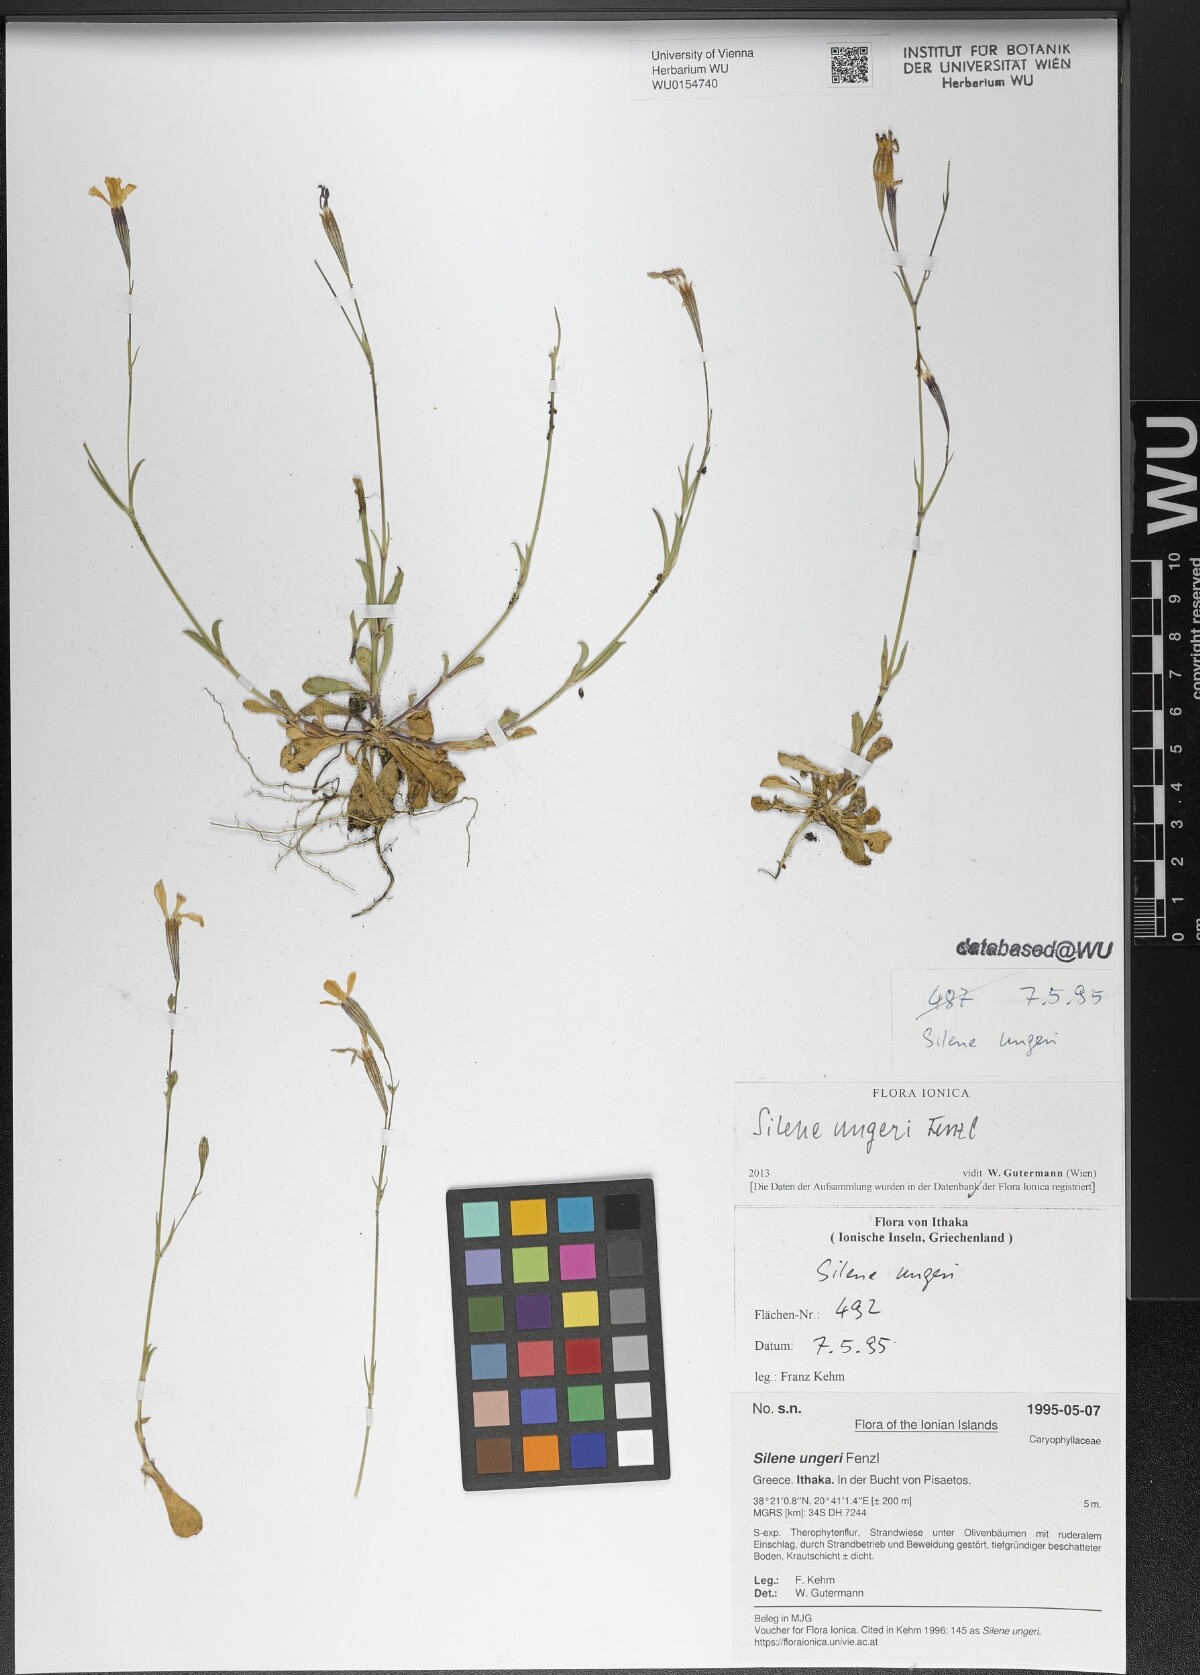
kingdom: Plantae
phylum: Tracheophyta
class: Magnoliopsida
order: Caryophyllales
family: Caryophyllaceae
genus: Silene
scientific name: Silene ungeri
